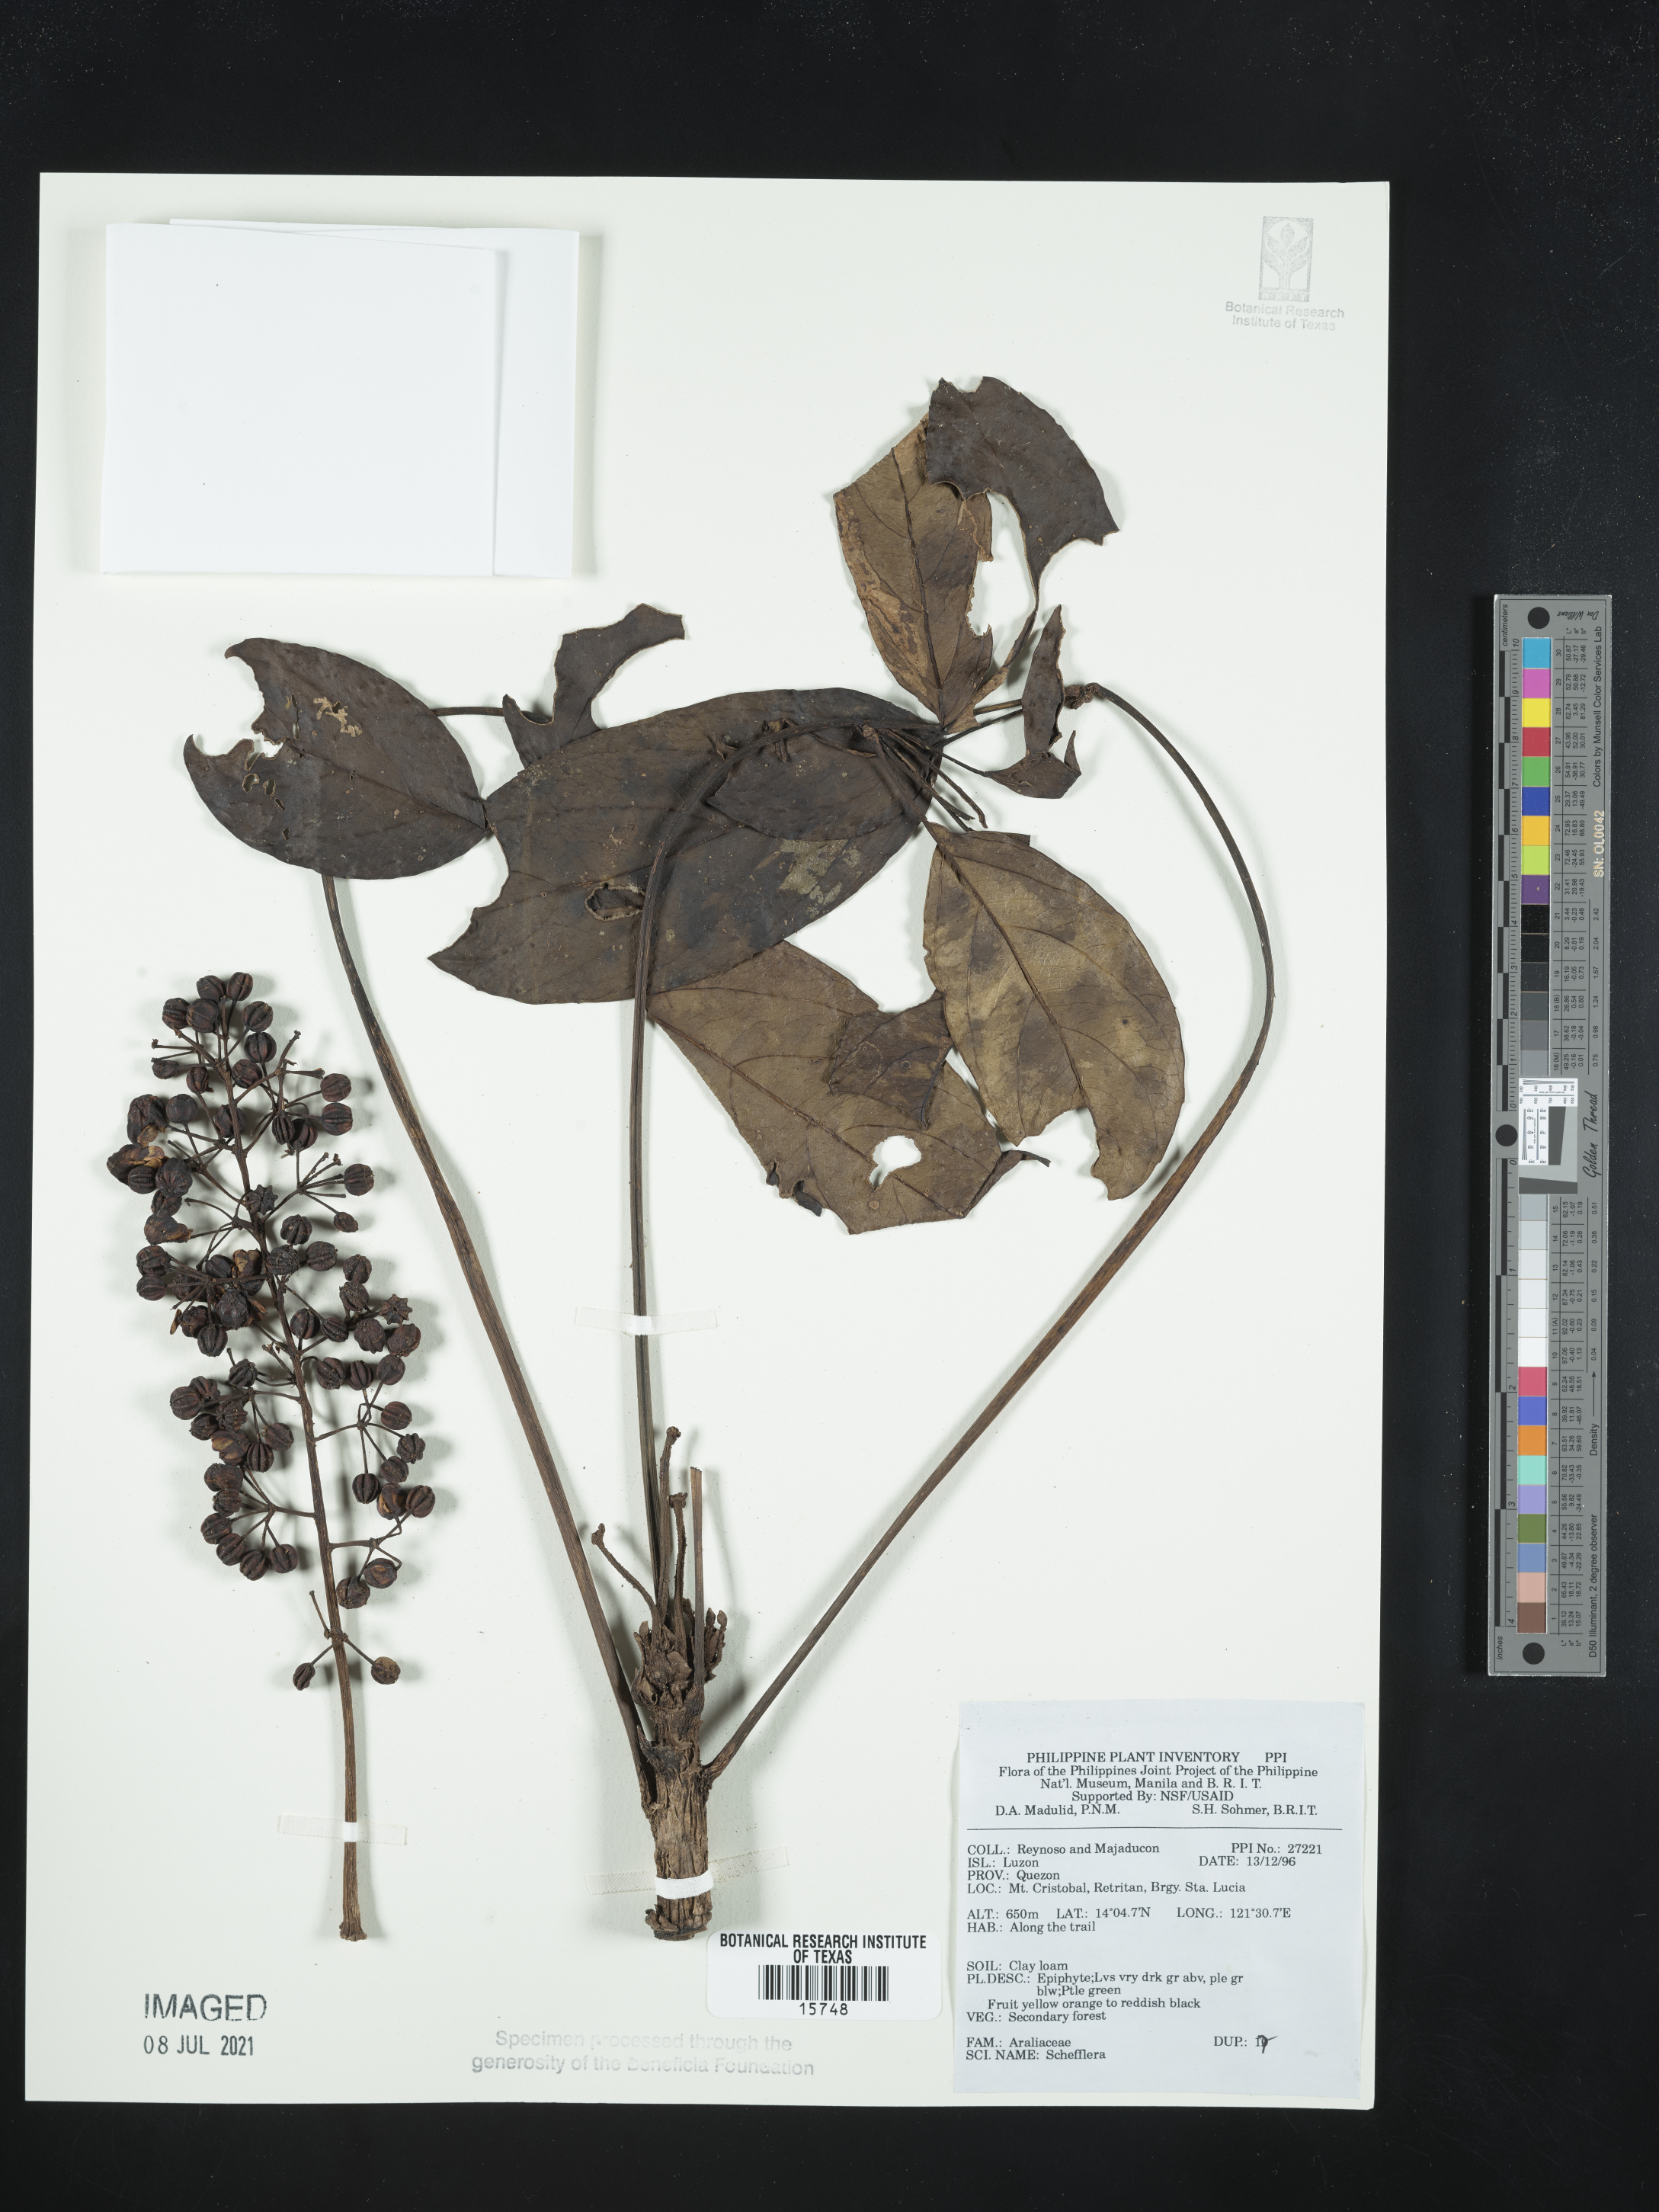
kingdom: Plantae
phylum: Tracheophyta
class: Magnoliopsida
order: Apiales
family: Araliaceae
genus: Schefflera
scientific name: Schefflera
